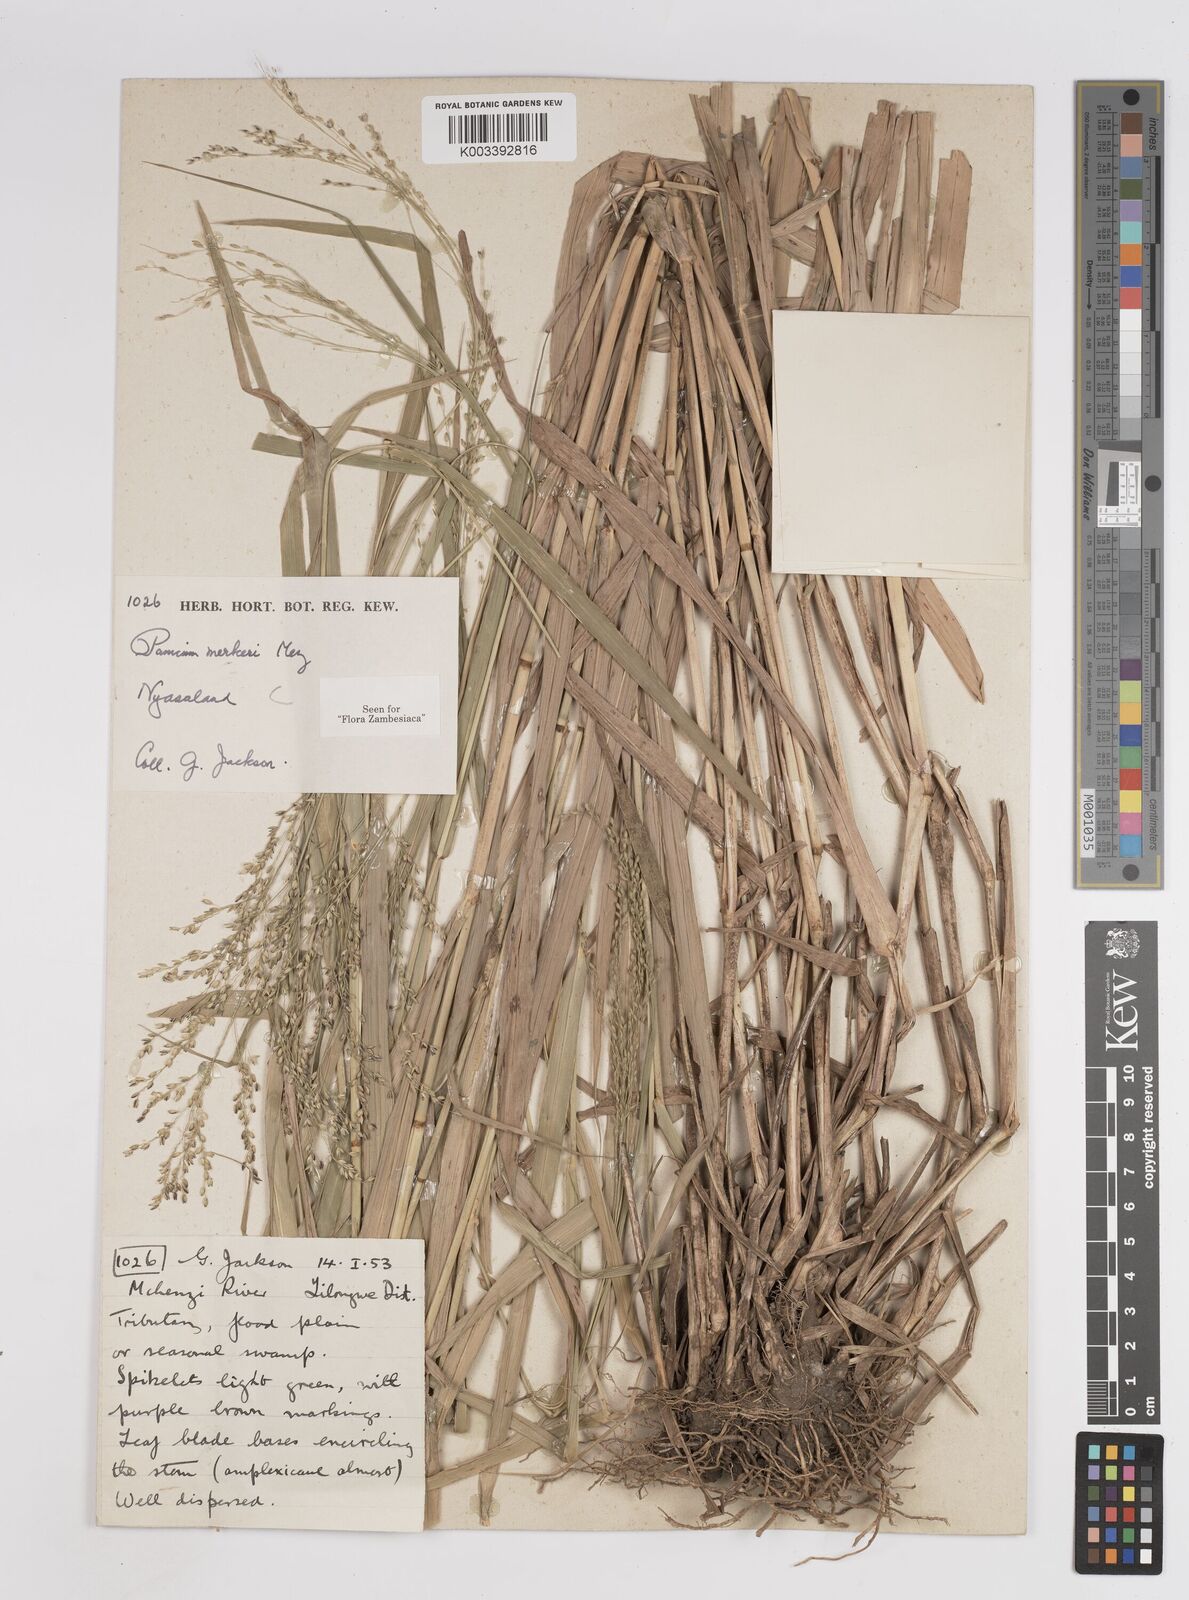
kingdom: Plantae
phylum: Tracheophyta
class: Liliopsida
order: Poales
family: Poaceae
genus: Panicum
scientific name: Panicum merkeri
